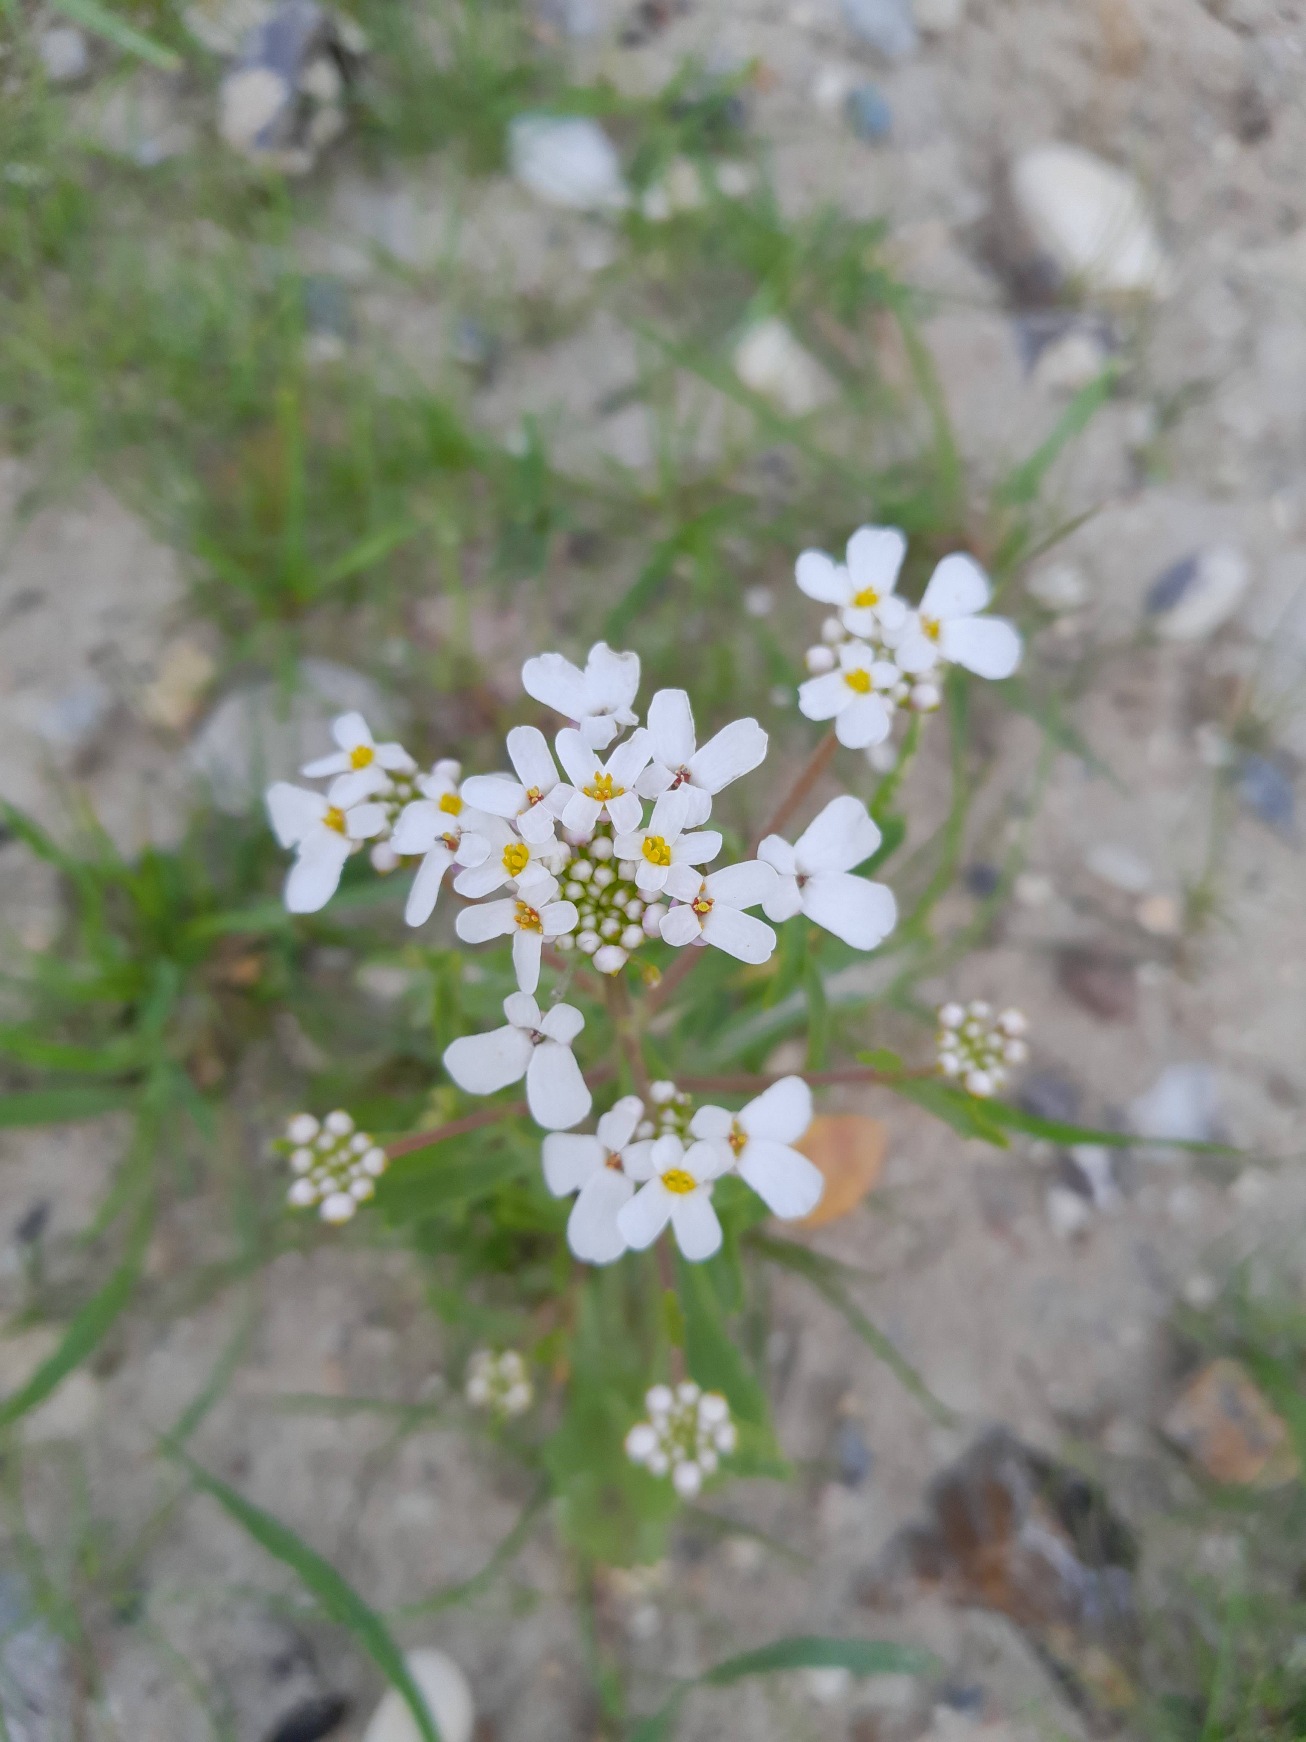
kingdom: Plantae
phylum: Tracheophyta
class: Magnoliopsida
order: Brassicales
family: Brassicaceae
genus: Iberis
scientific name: Iberis amara
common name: Hvid sløjfeblomst
